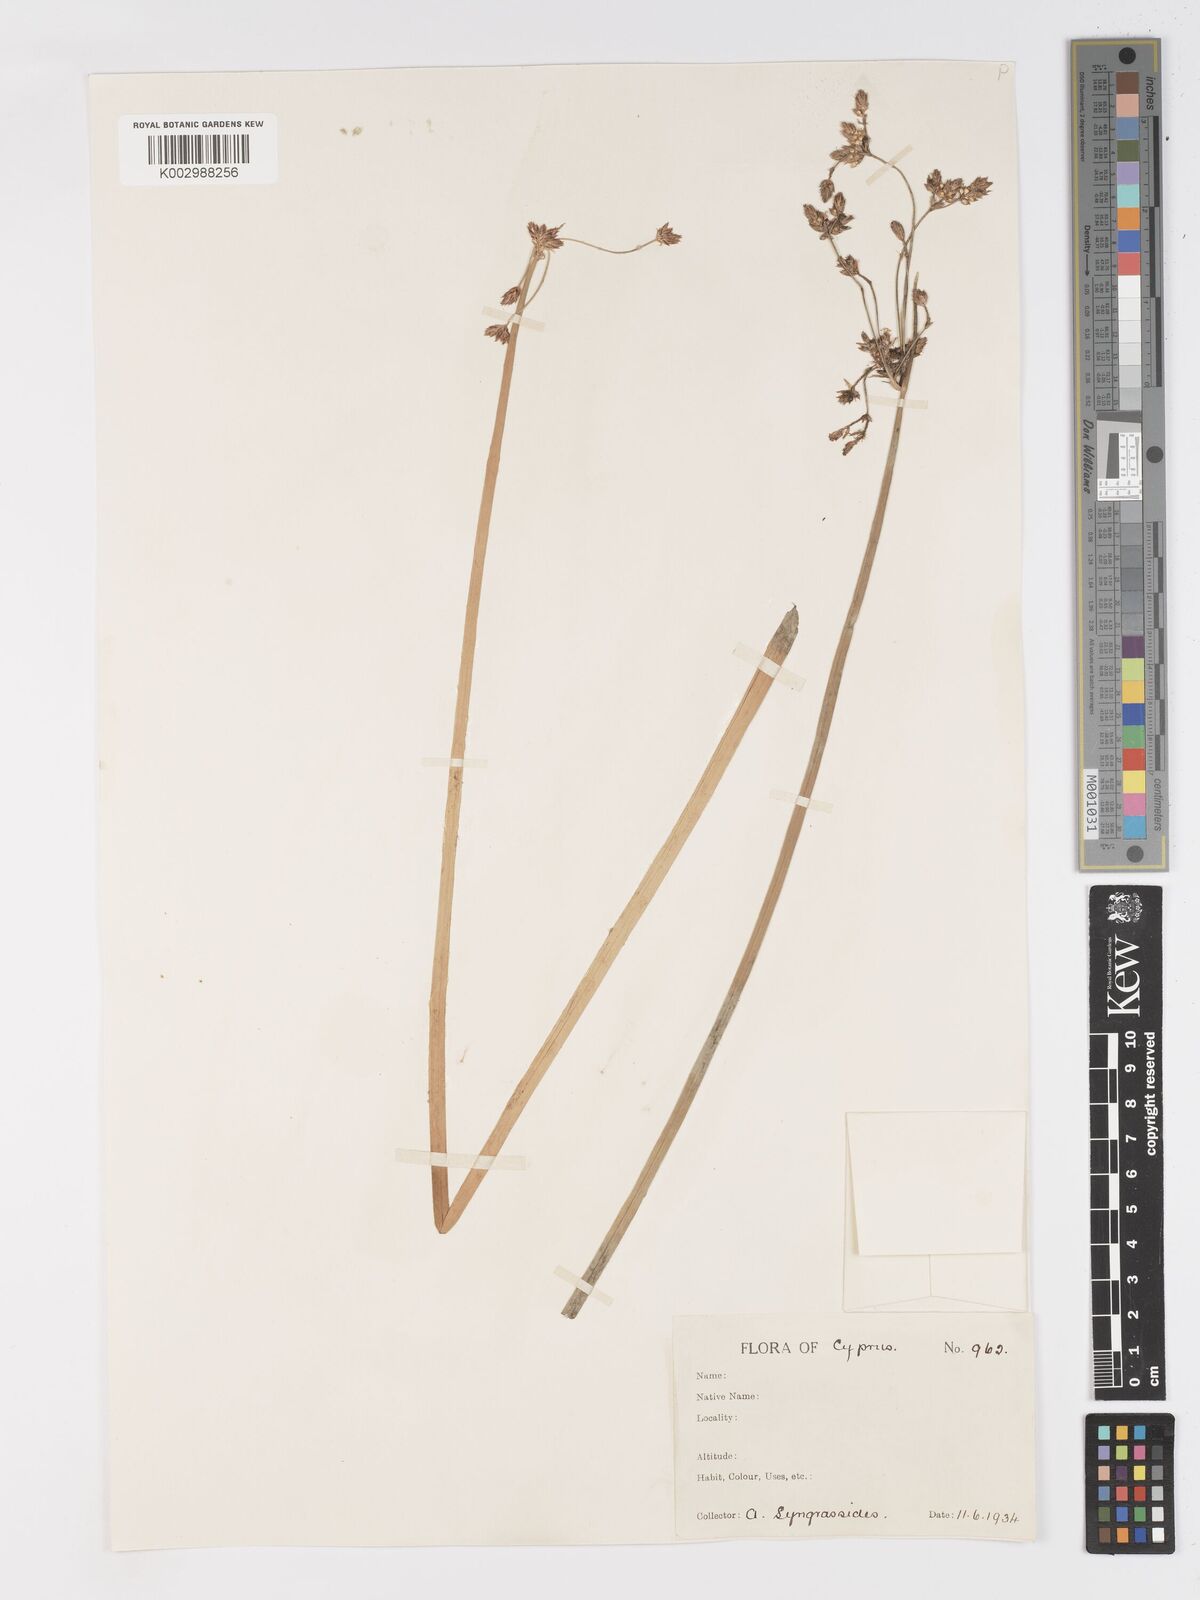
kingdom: Plantae
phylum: Tracheophyta
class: Liliopsida
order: Poales
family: Cyperaceae
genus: Schoenoplectus
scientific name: Schoenoplectus
